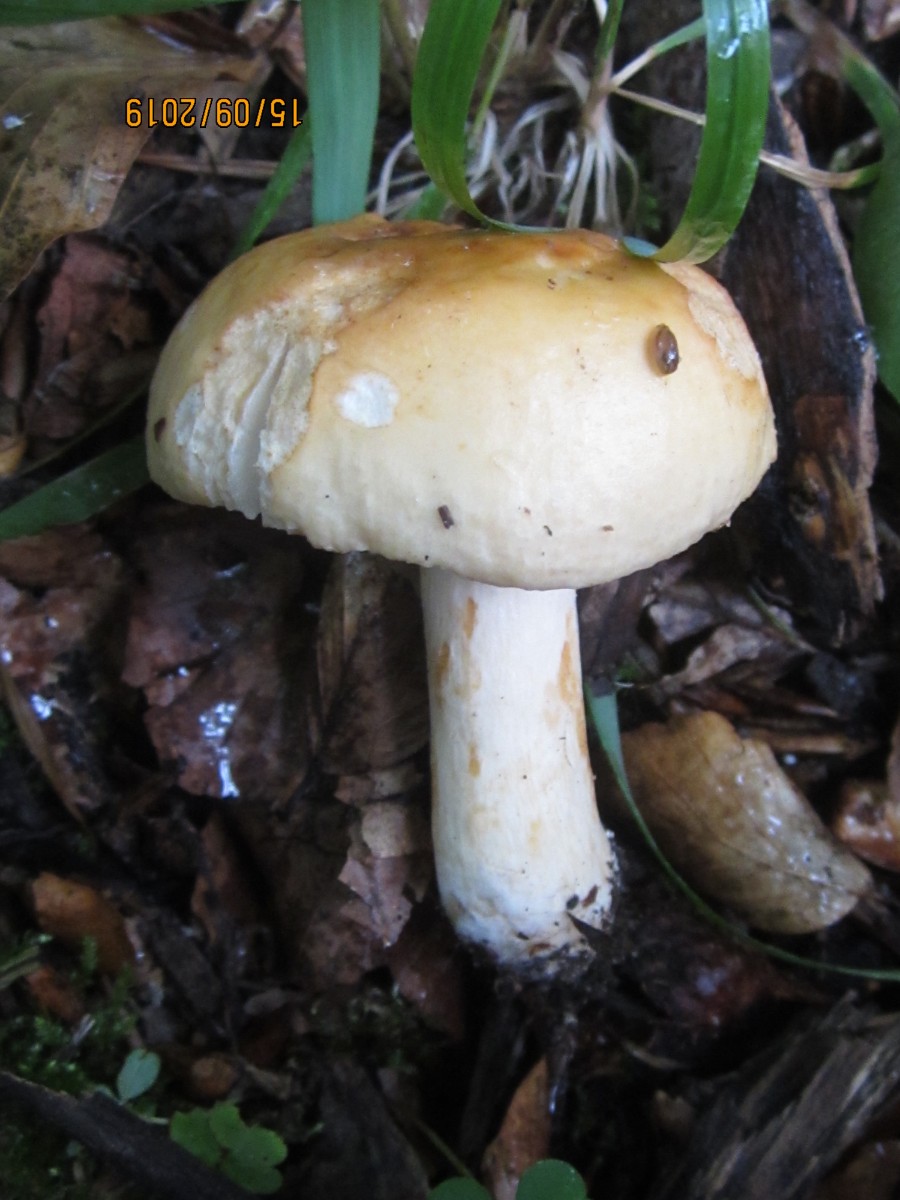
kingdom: Fungi
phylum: Basidiomycota
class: Agaricomycetes
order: Russulales
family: Russulaceae
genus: Russula
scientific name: Russula fellea
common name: galde-skørhat
